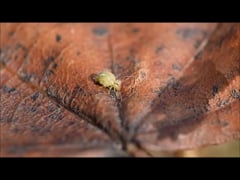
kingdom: Animalia
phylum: Arthropoda
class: Collembola
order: Symphypleona
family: Sminthuridae
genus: Sminthurus
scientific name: Sminthurus viridis
